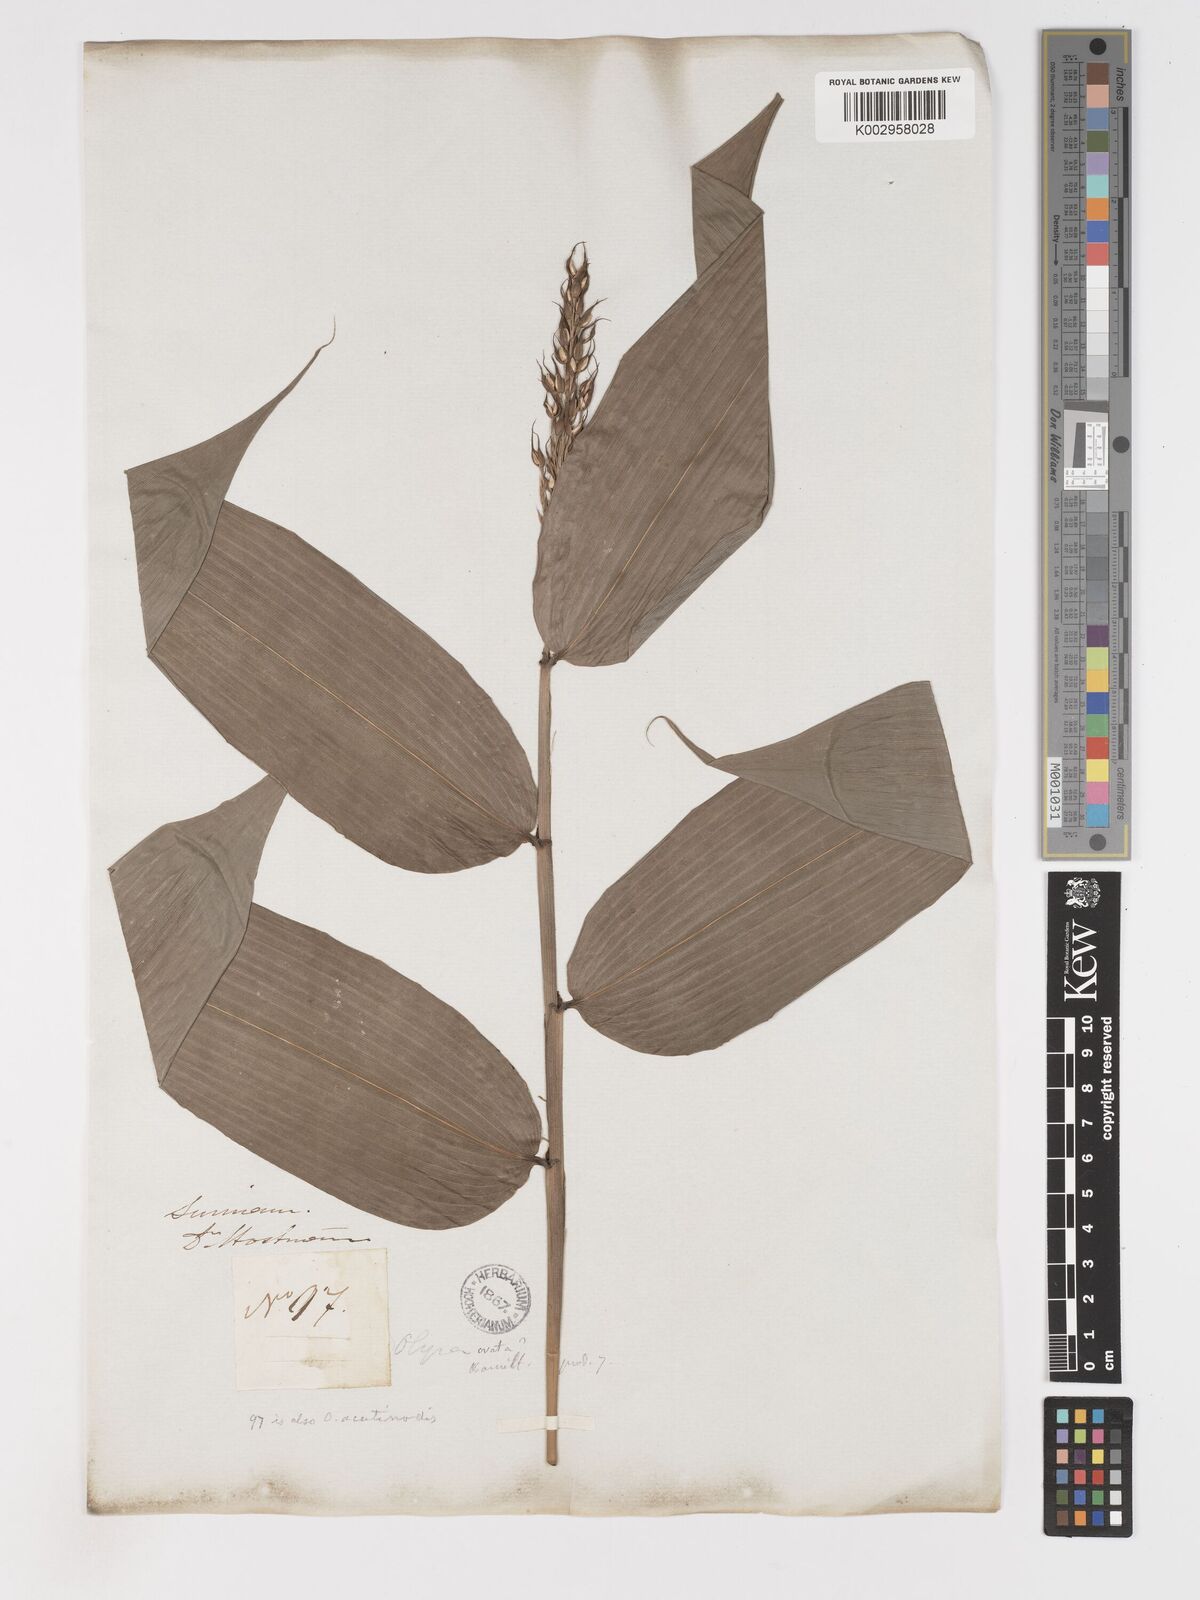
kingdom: Plantae
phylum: Tracheophyta
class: Liliopsida
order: Poales
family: Poaceae
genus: Olyra
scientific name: Olyra latifolia
